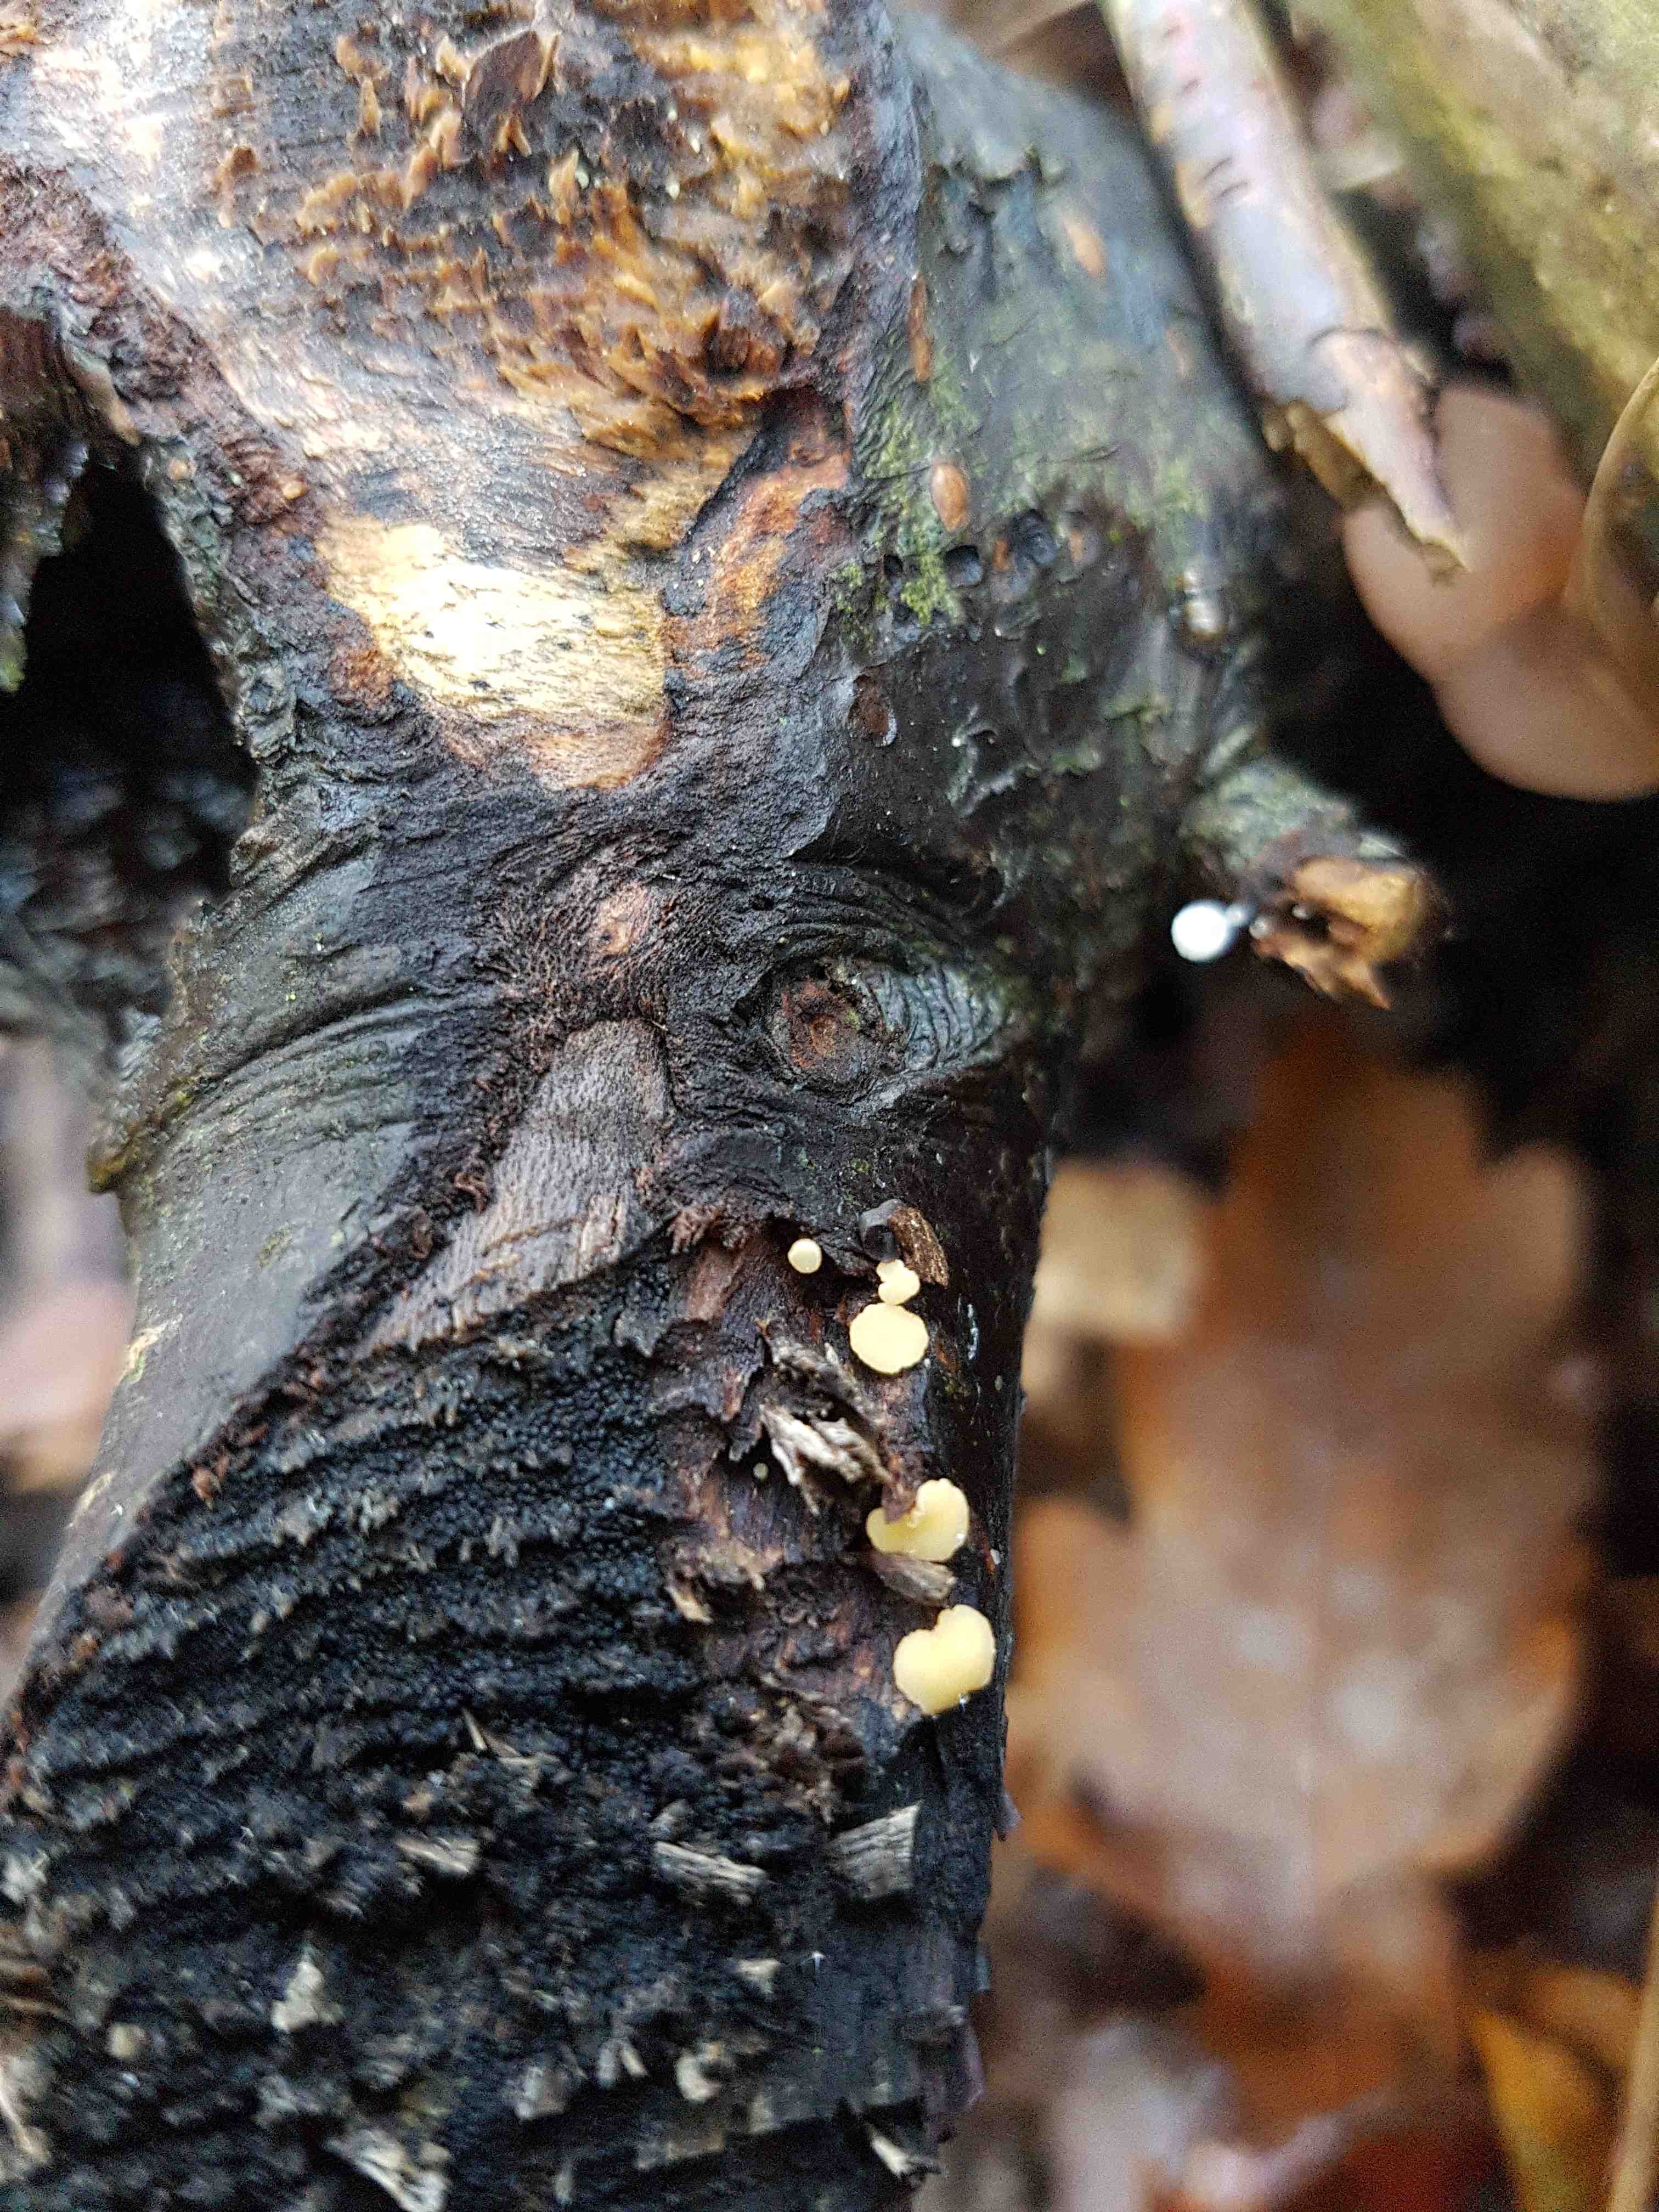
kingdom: Fungi
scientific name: Fungi
